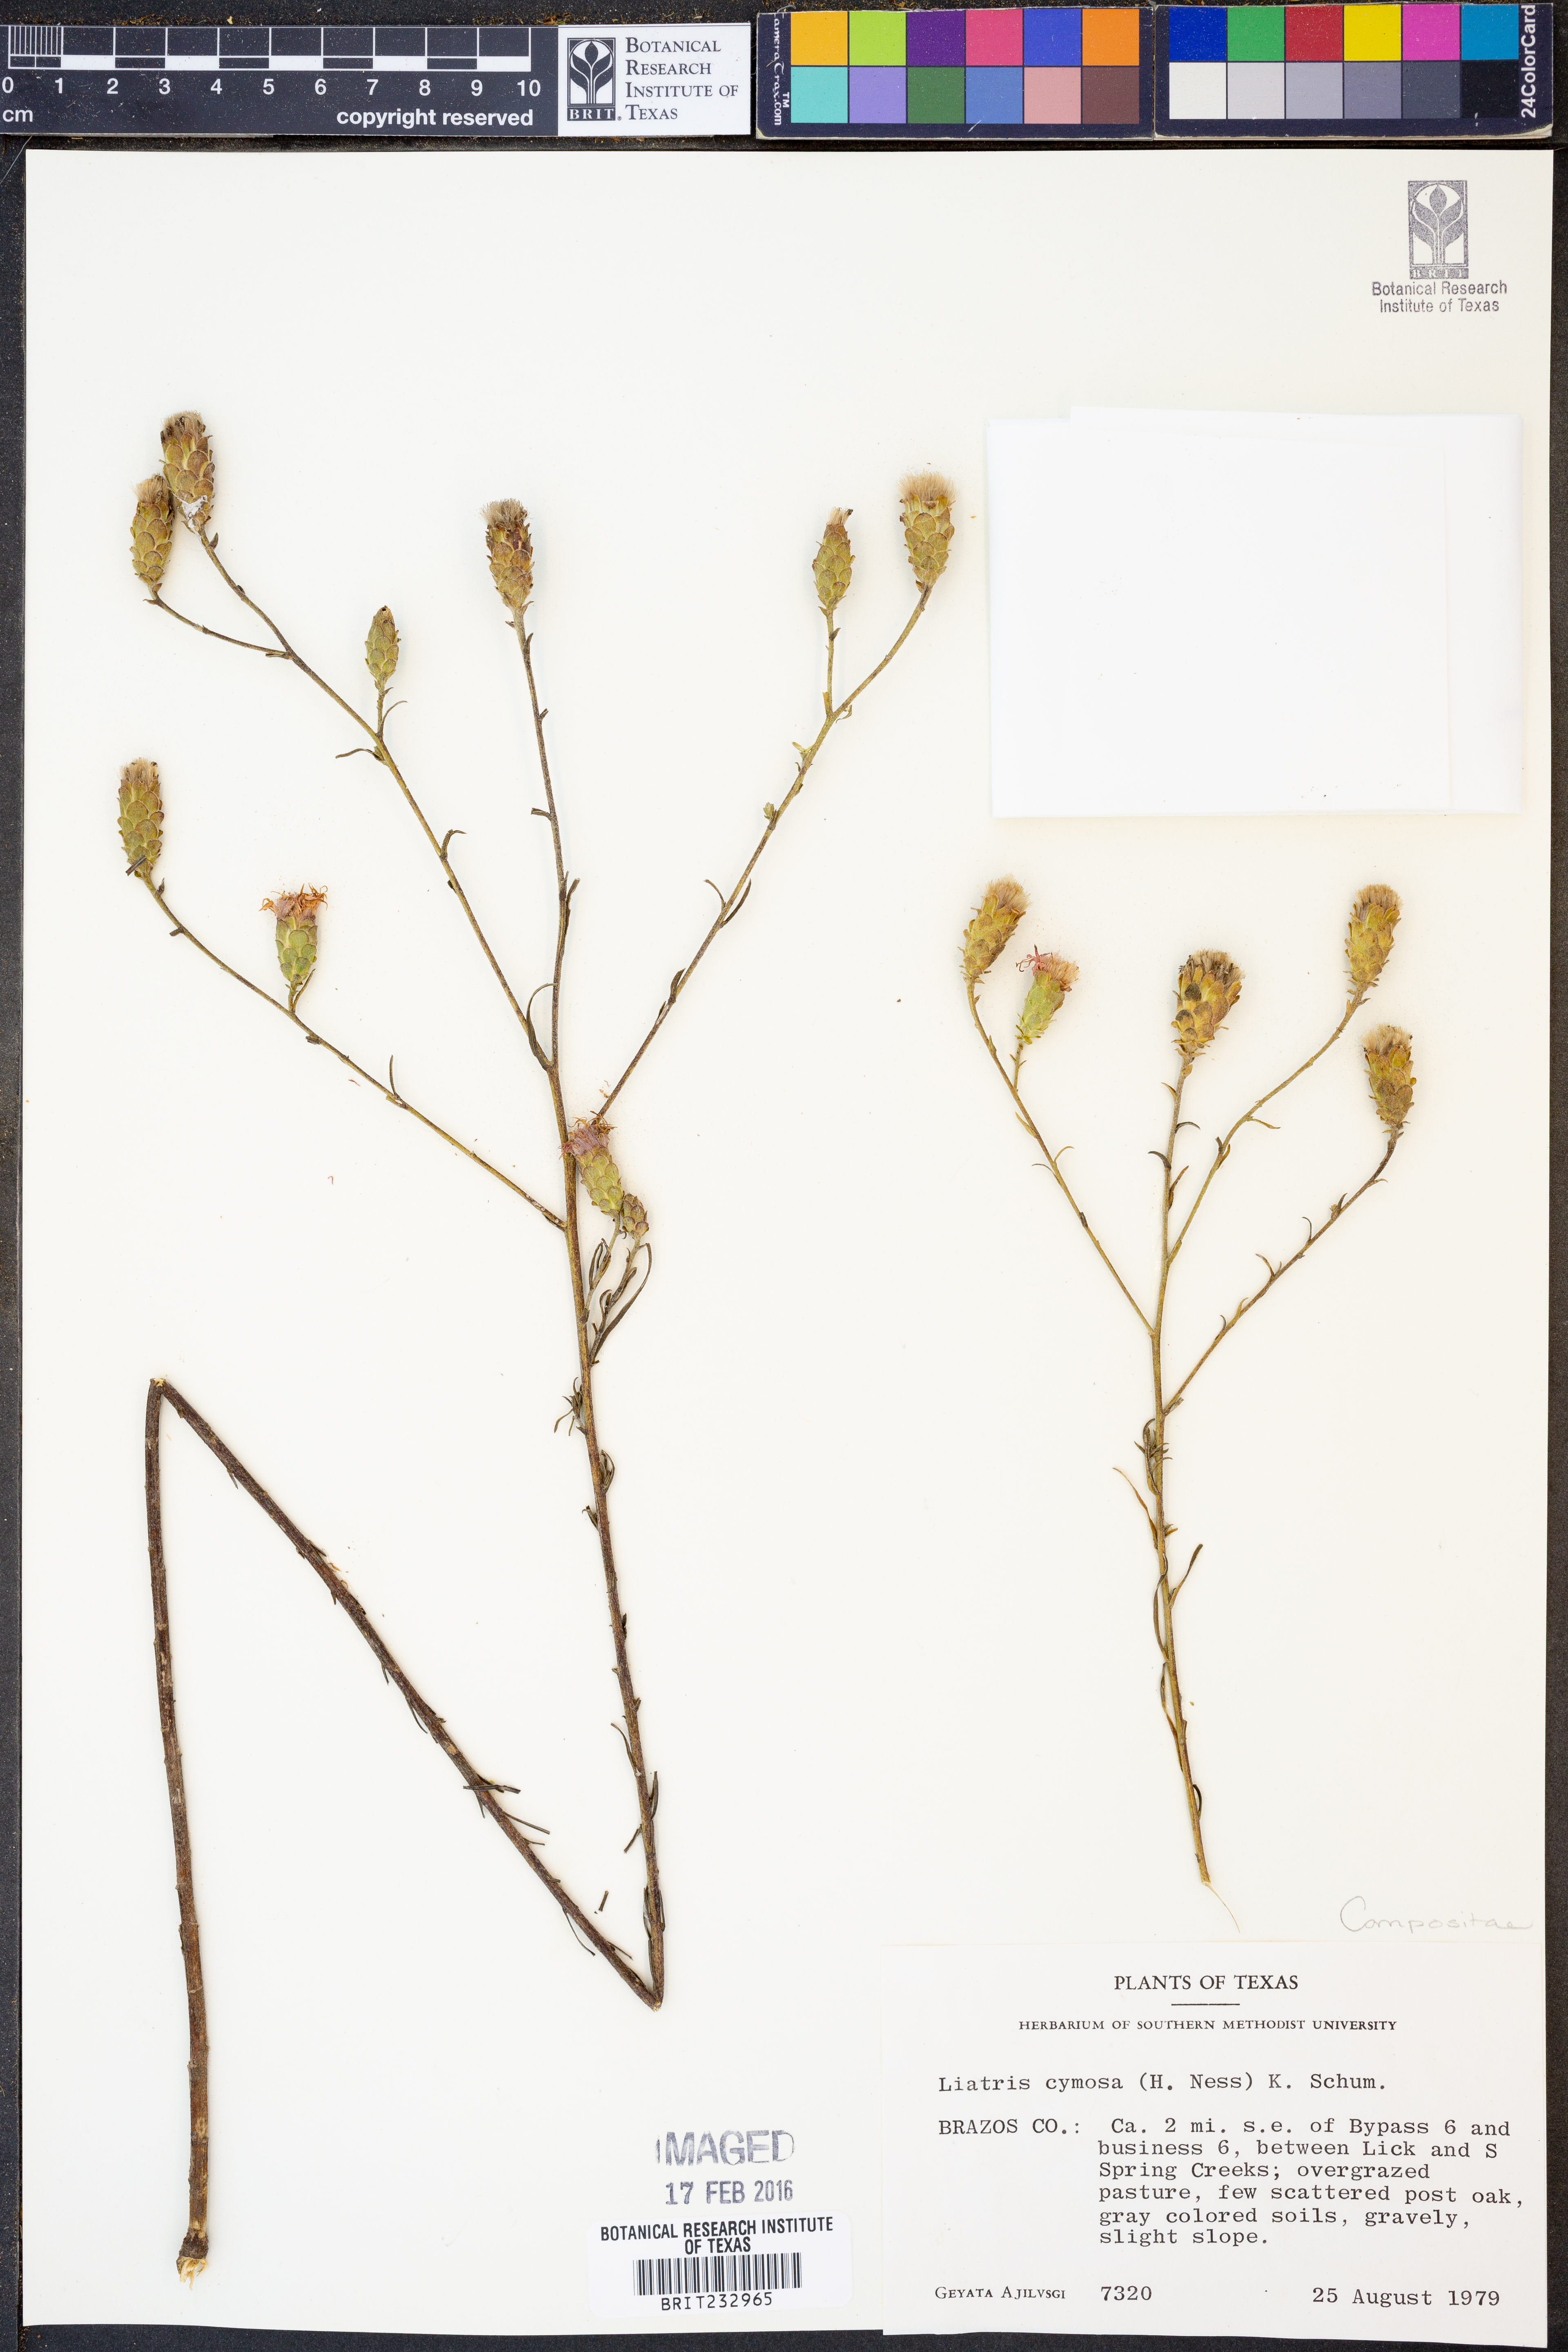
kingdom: Plantae
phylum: Tracheophyta
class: Magnoliopsida
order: Asterales
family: Asteraceae
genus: Liatris
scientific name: Liatris cymosa
